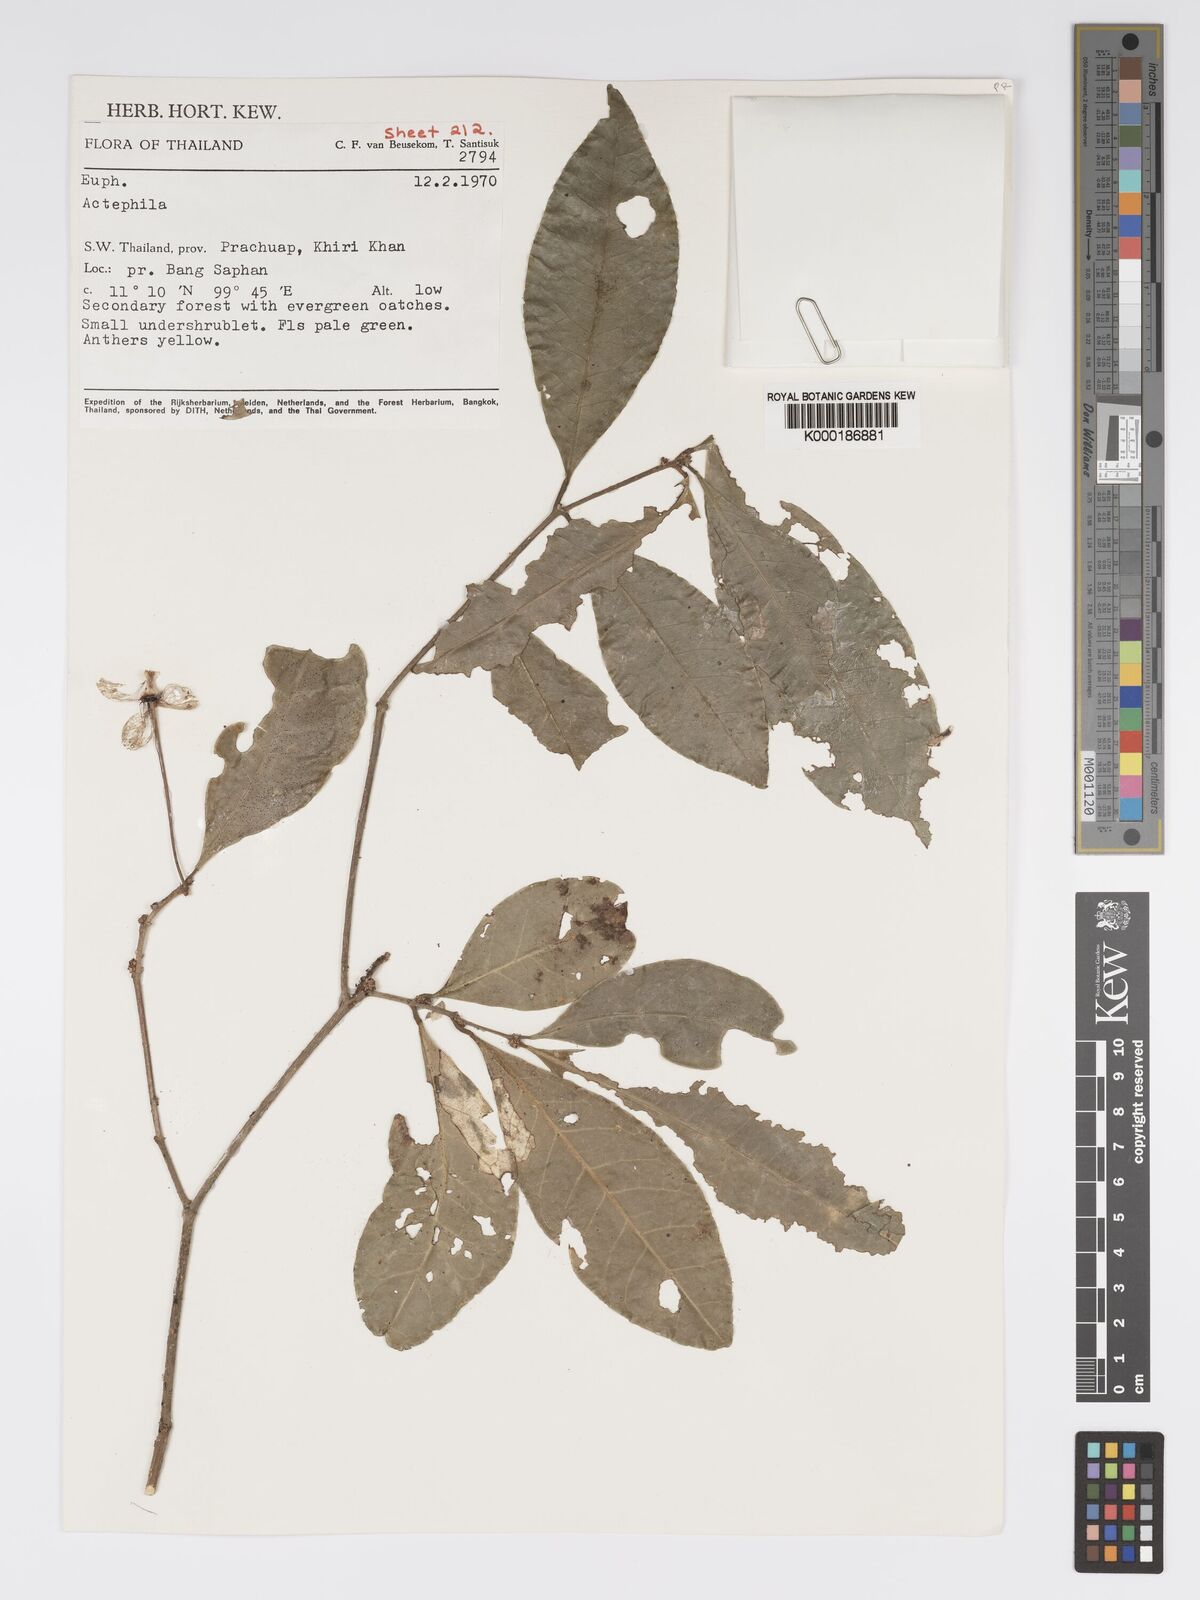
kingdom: Plantae
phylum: Tracheophyta
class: Magnoliopsida
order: Malpighiales
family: Phyllanthaceae
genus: Actephila
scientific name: Actephila ovalis
